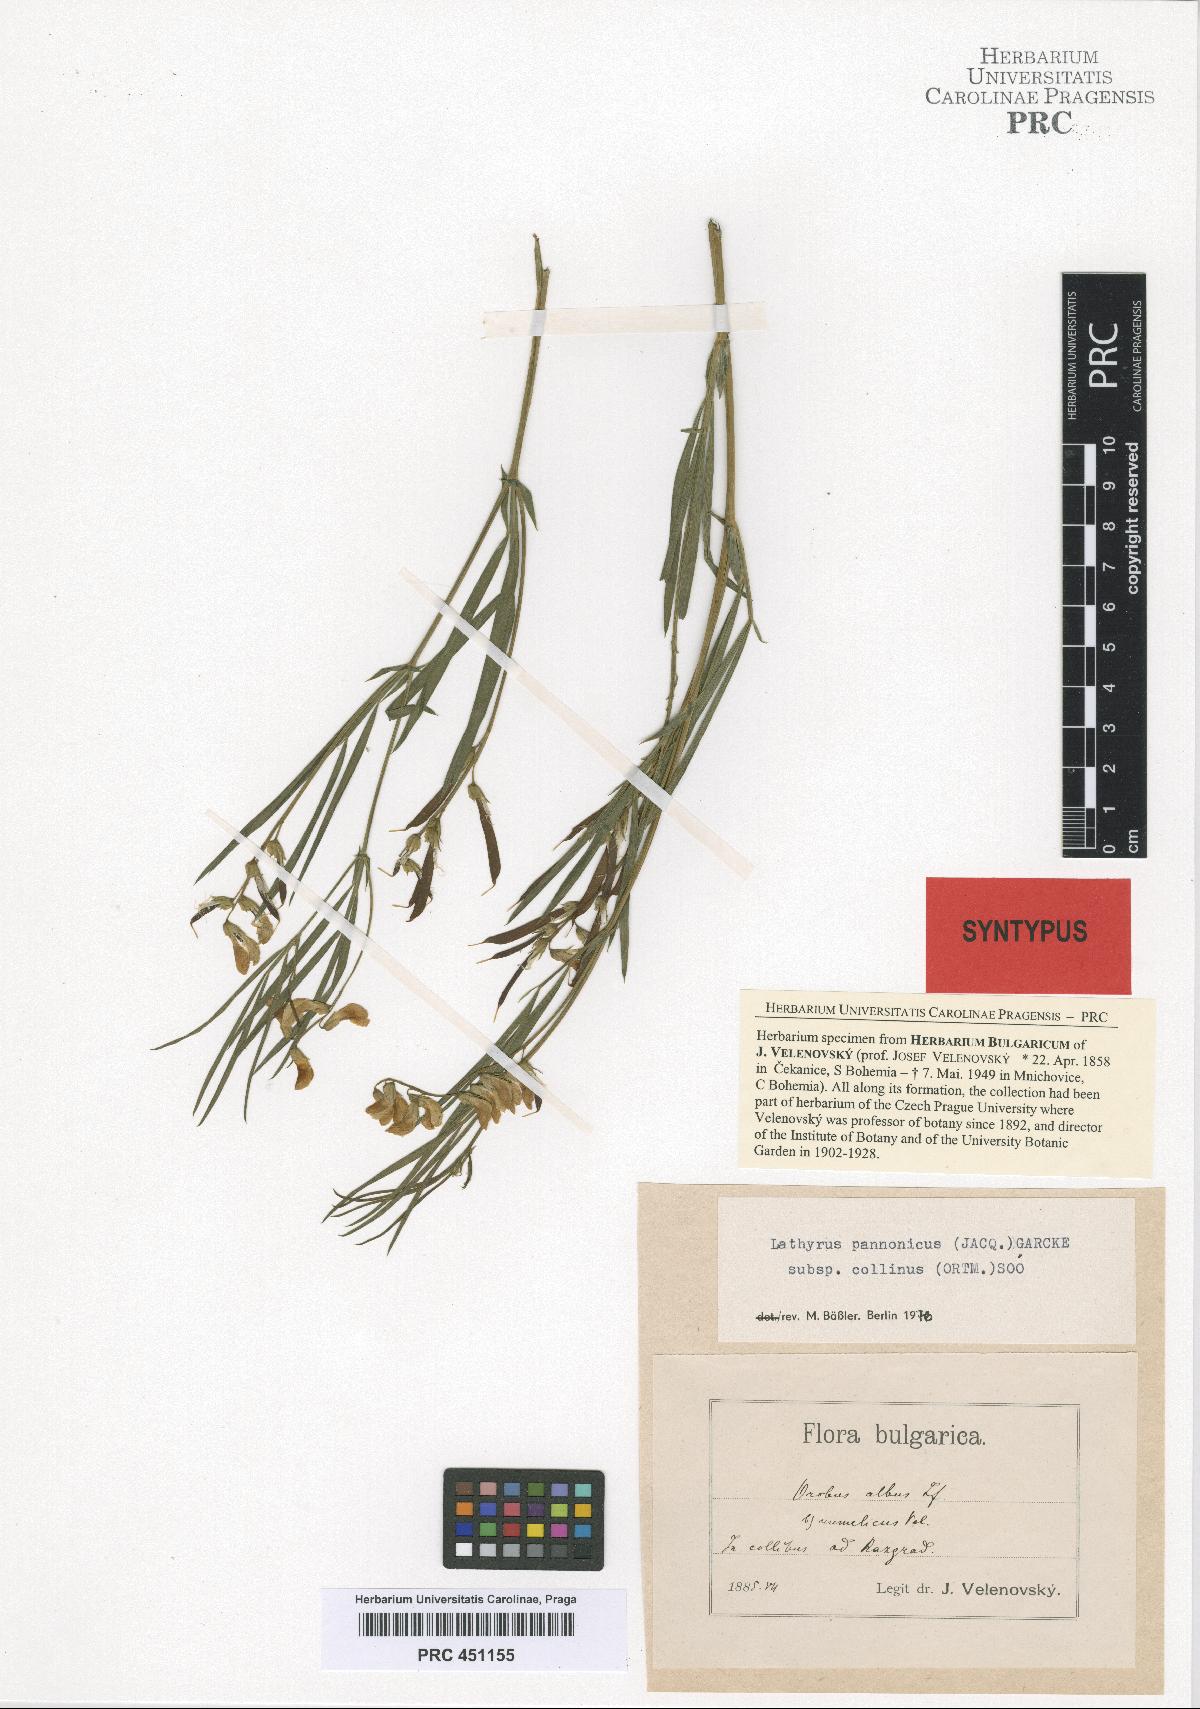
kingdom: Plantae
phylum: Tracheophyta
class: Magnoliopsida
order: Fabales
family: Fabaceae
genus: Lathyrus
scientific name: Lathyrus pannonicus
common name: Pea
